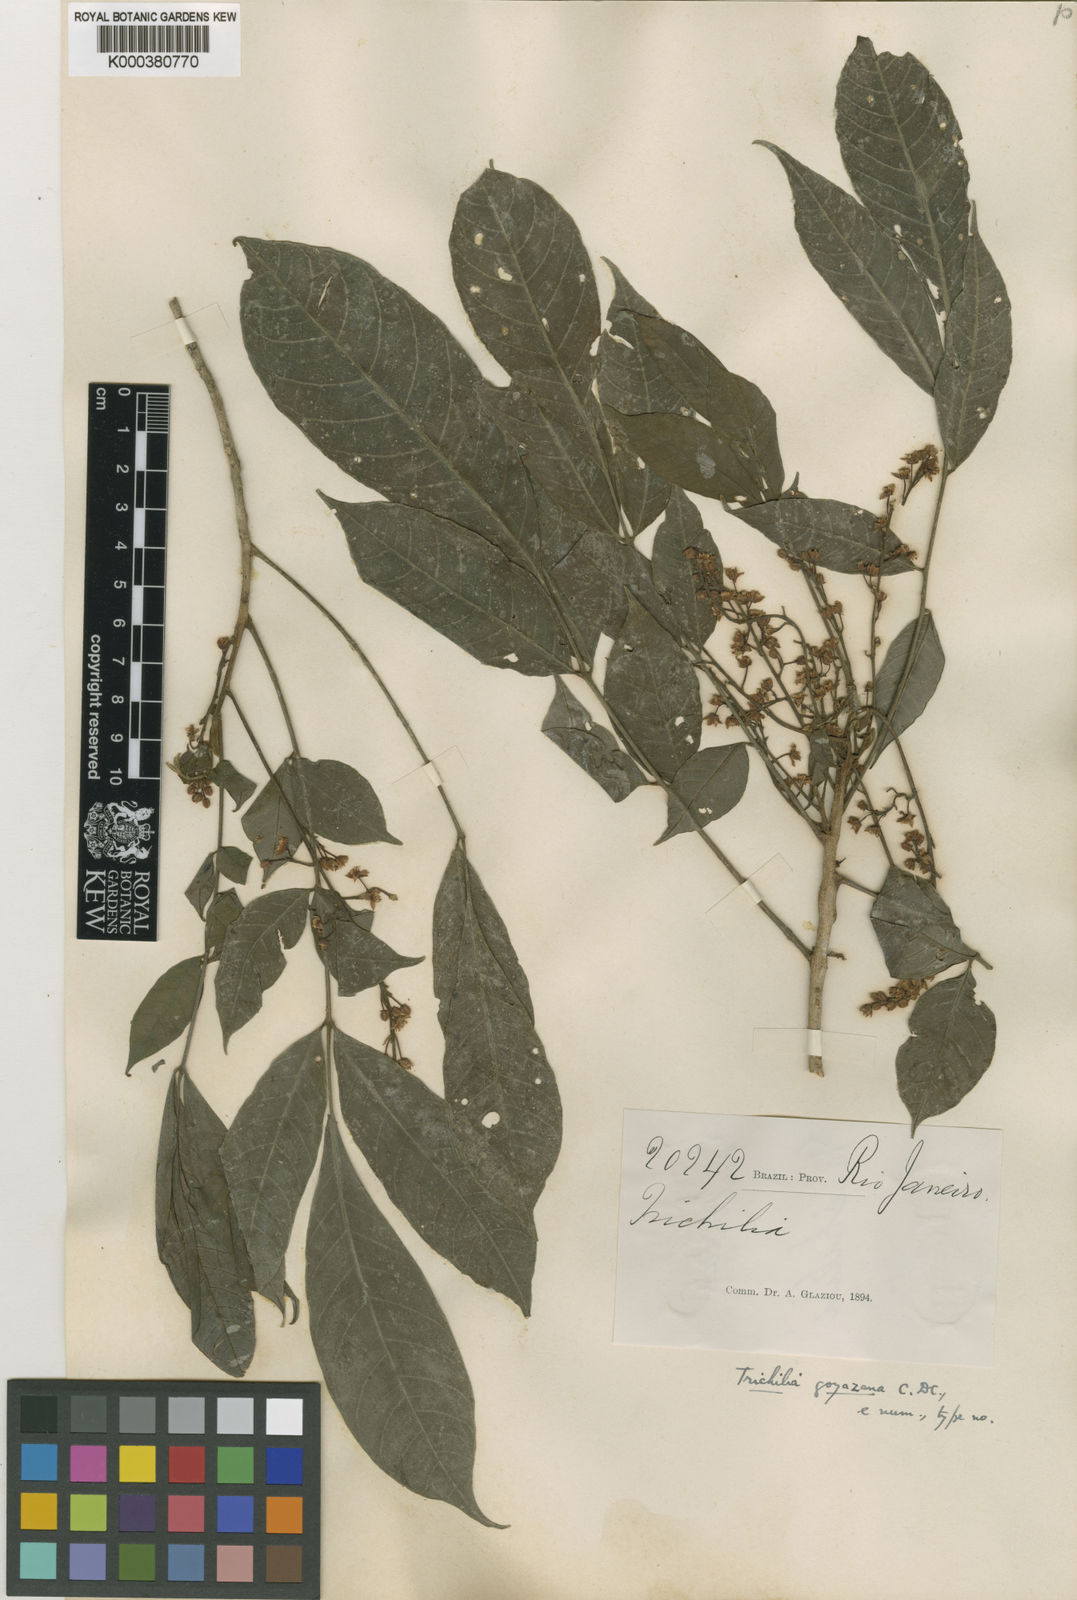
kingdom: Plantae
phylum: Tracheophyta
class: Magnoliopsida
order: Sapindales
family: Meliaceae
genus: Trichilia
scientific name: Trichilia elegans
